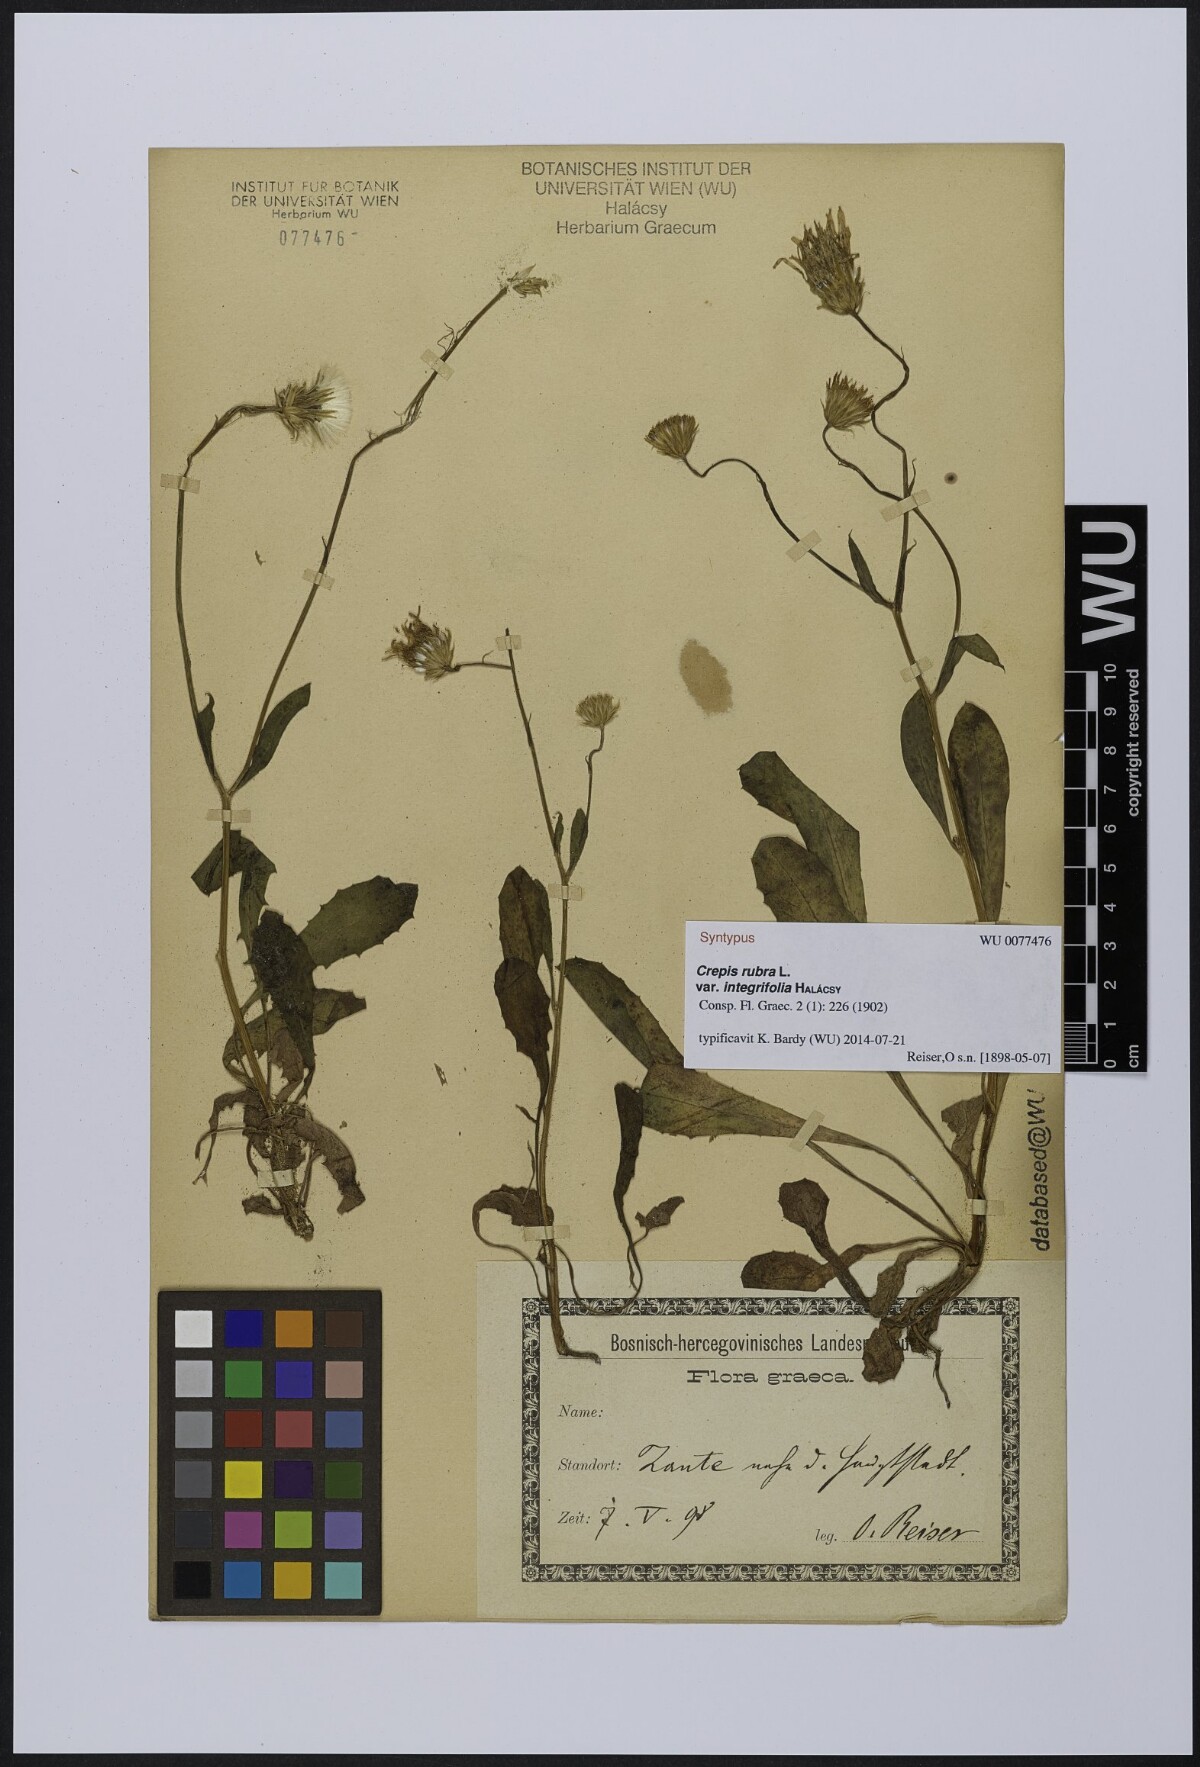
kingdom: Plantae
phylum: Tracheophyta
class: Magnoliopsida
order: Asterales
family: Asteraceae
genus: Crepis
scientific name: Crepis rubra
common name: Pink hawk's-beard
